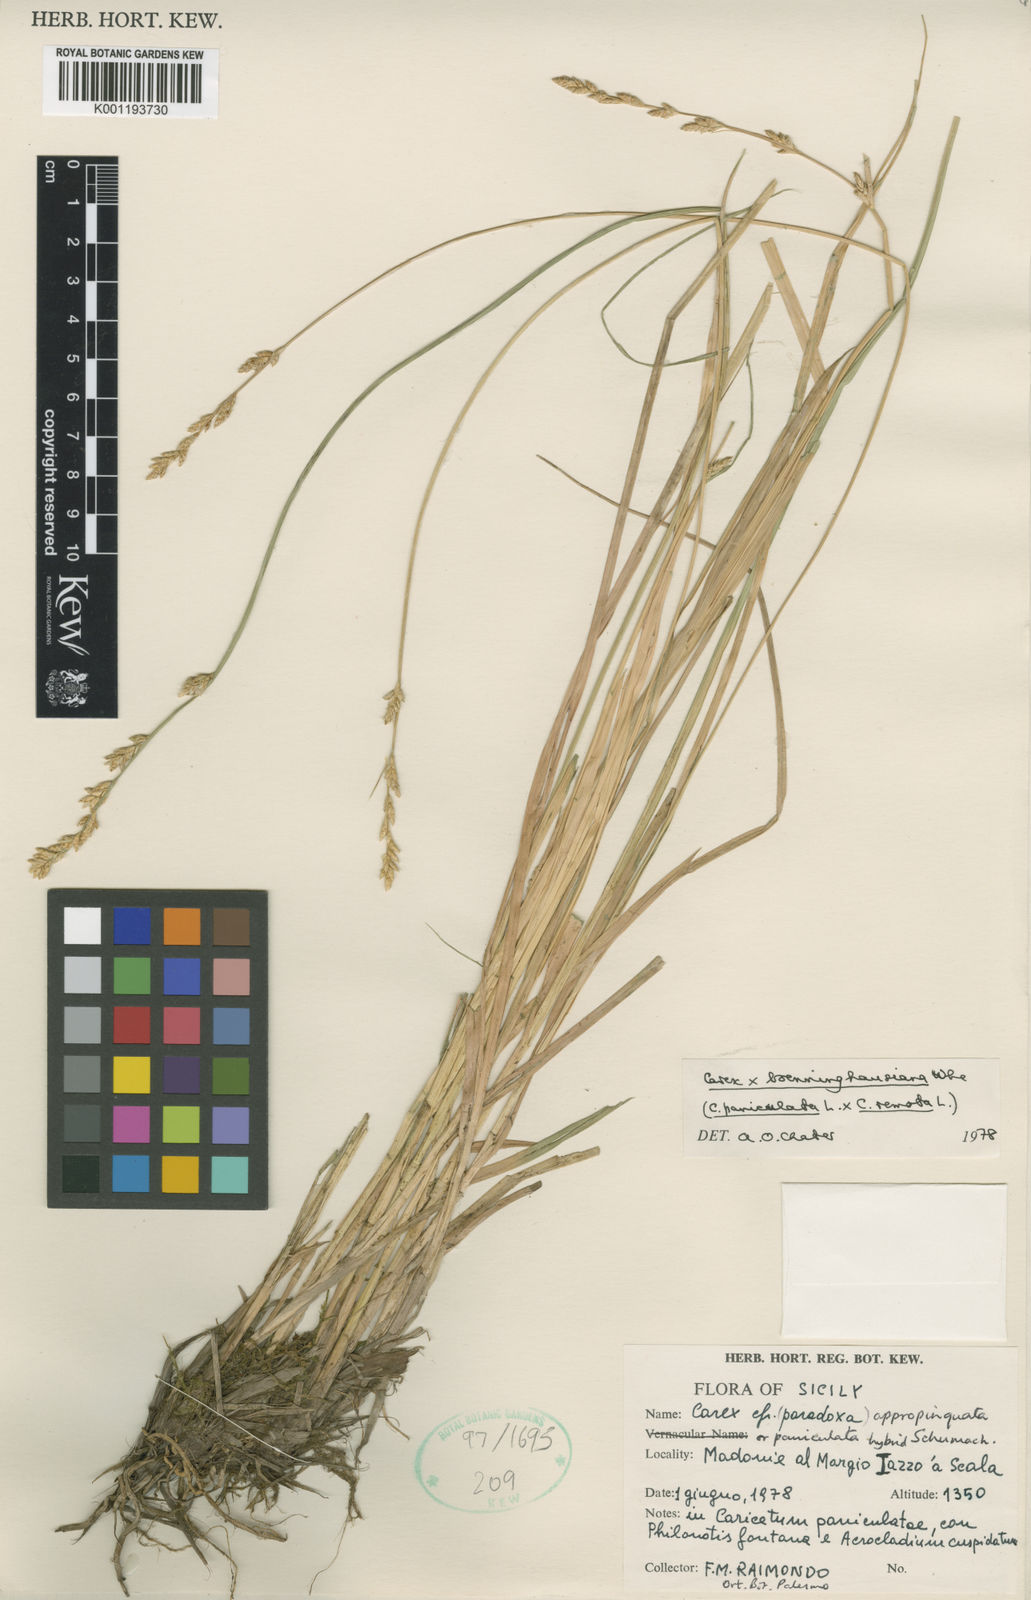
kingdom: Plantae
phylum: Tracheophyta
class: Liliopsida
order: Poales
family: Cyperaceae
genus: Carex
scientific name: Carex boenninghausiana
